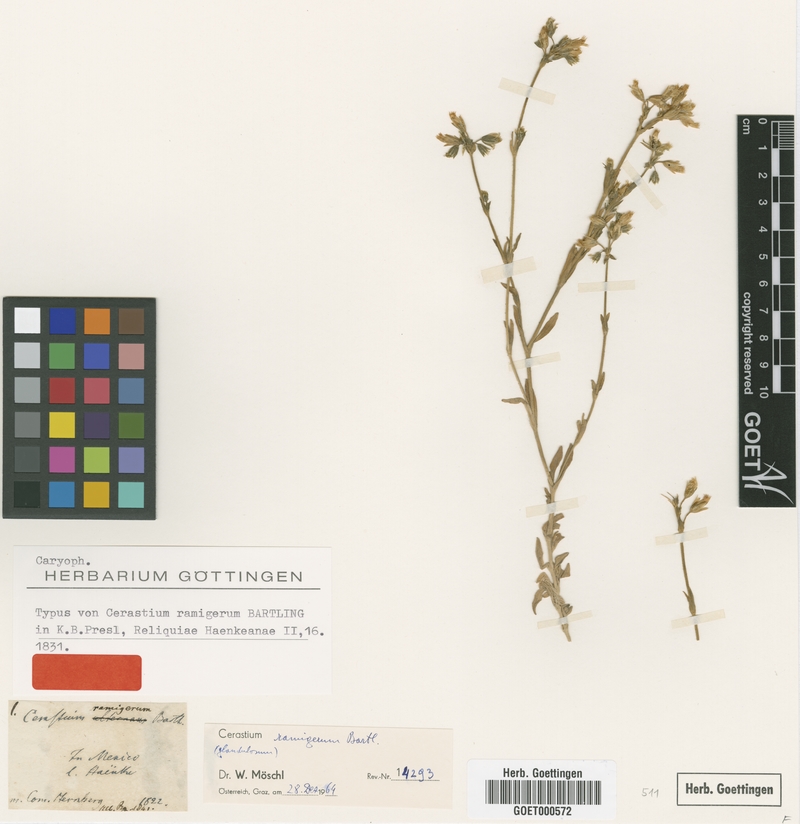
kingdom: Plantae
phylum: Tracheophyta
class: Magnoliopsida
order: Caryophyllales
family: Caryophyllaceae
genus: Cerastium
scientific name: Cerastium ramigerum
